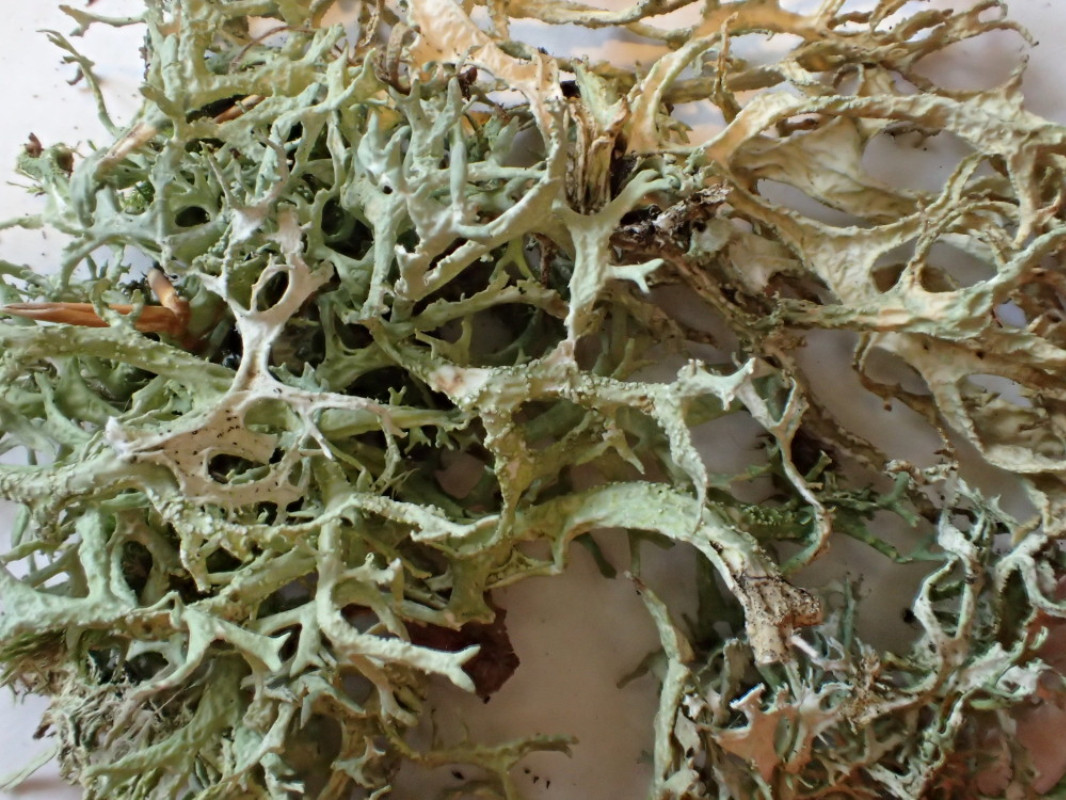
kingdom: Fungi
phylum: Ascomycota
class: Lecanoromycetes
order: Lecanorales
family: Parmeliaceae
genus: Evernia
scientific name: Evernia prunastri
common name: almindelig slåenlav
